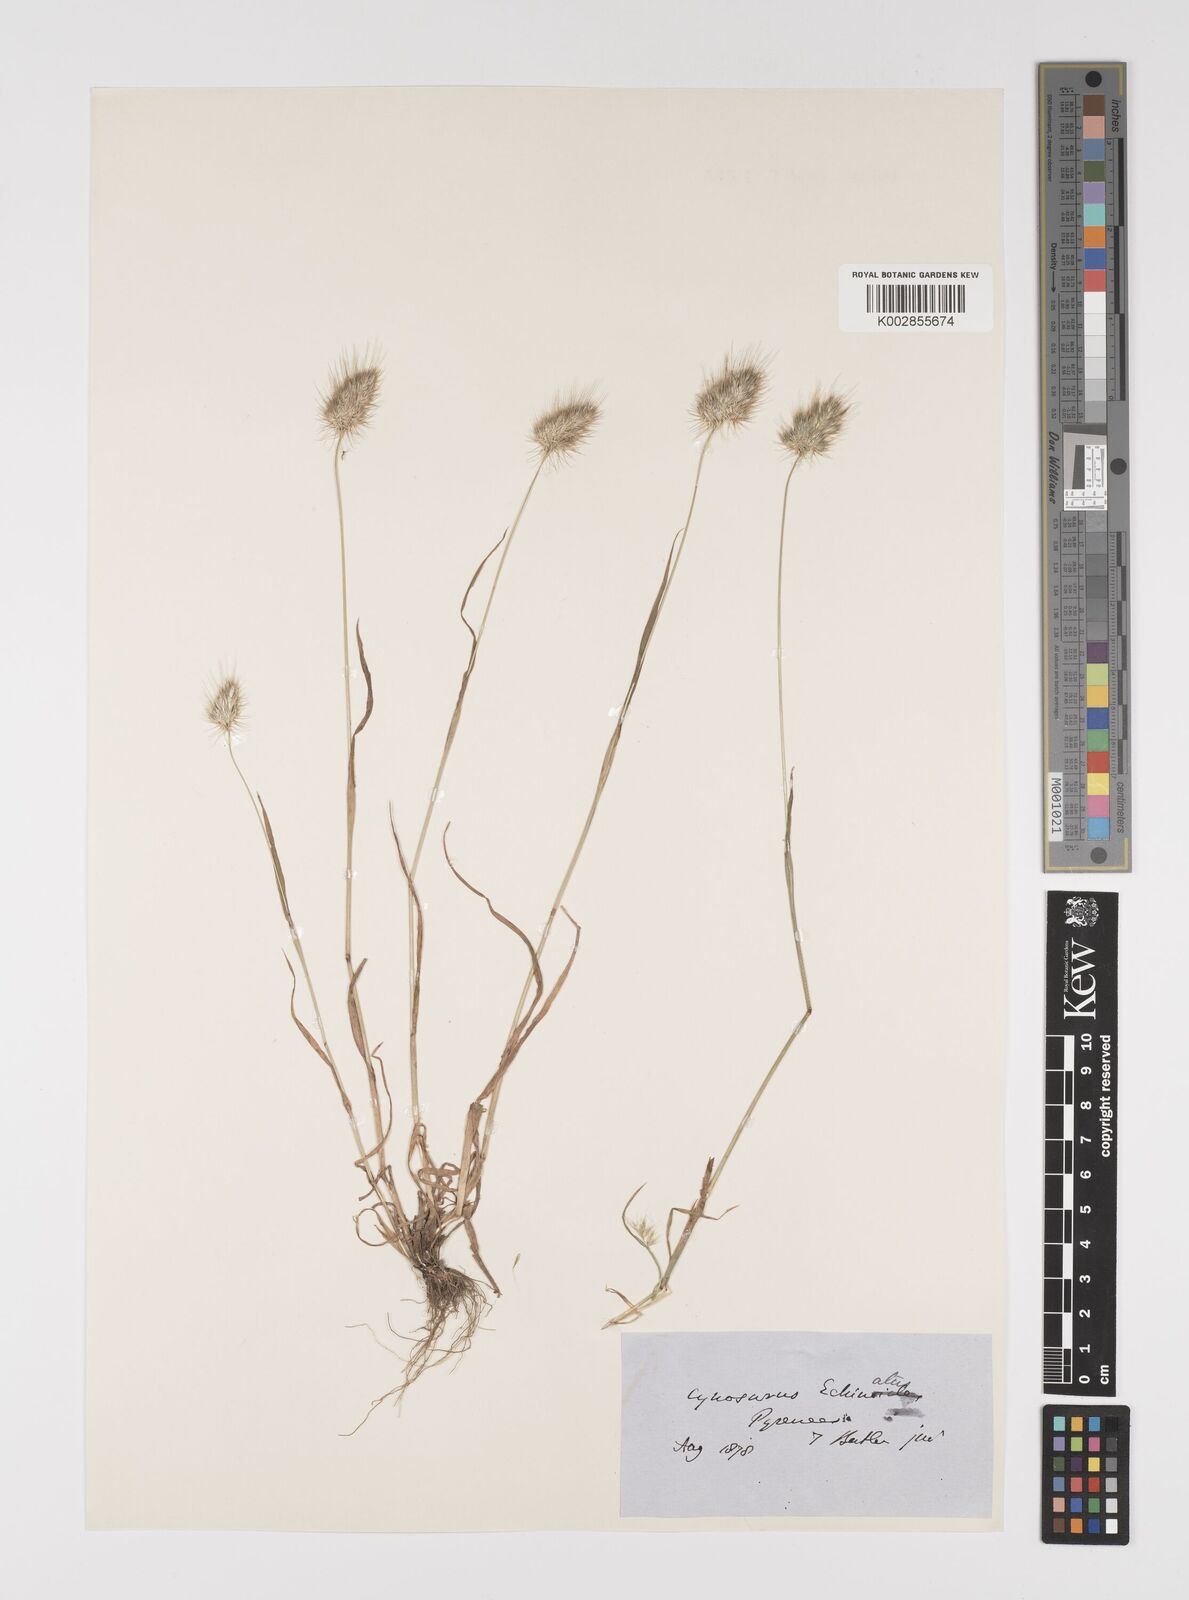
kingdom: Plantae
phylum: Tracheophyta
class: Liliopsida
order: Poales
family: Poaceae
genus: Cynosurus
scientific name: Cynosurus echinatus
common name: Rough dog's-tail
